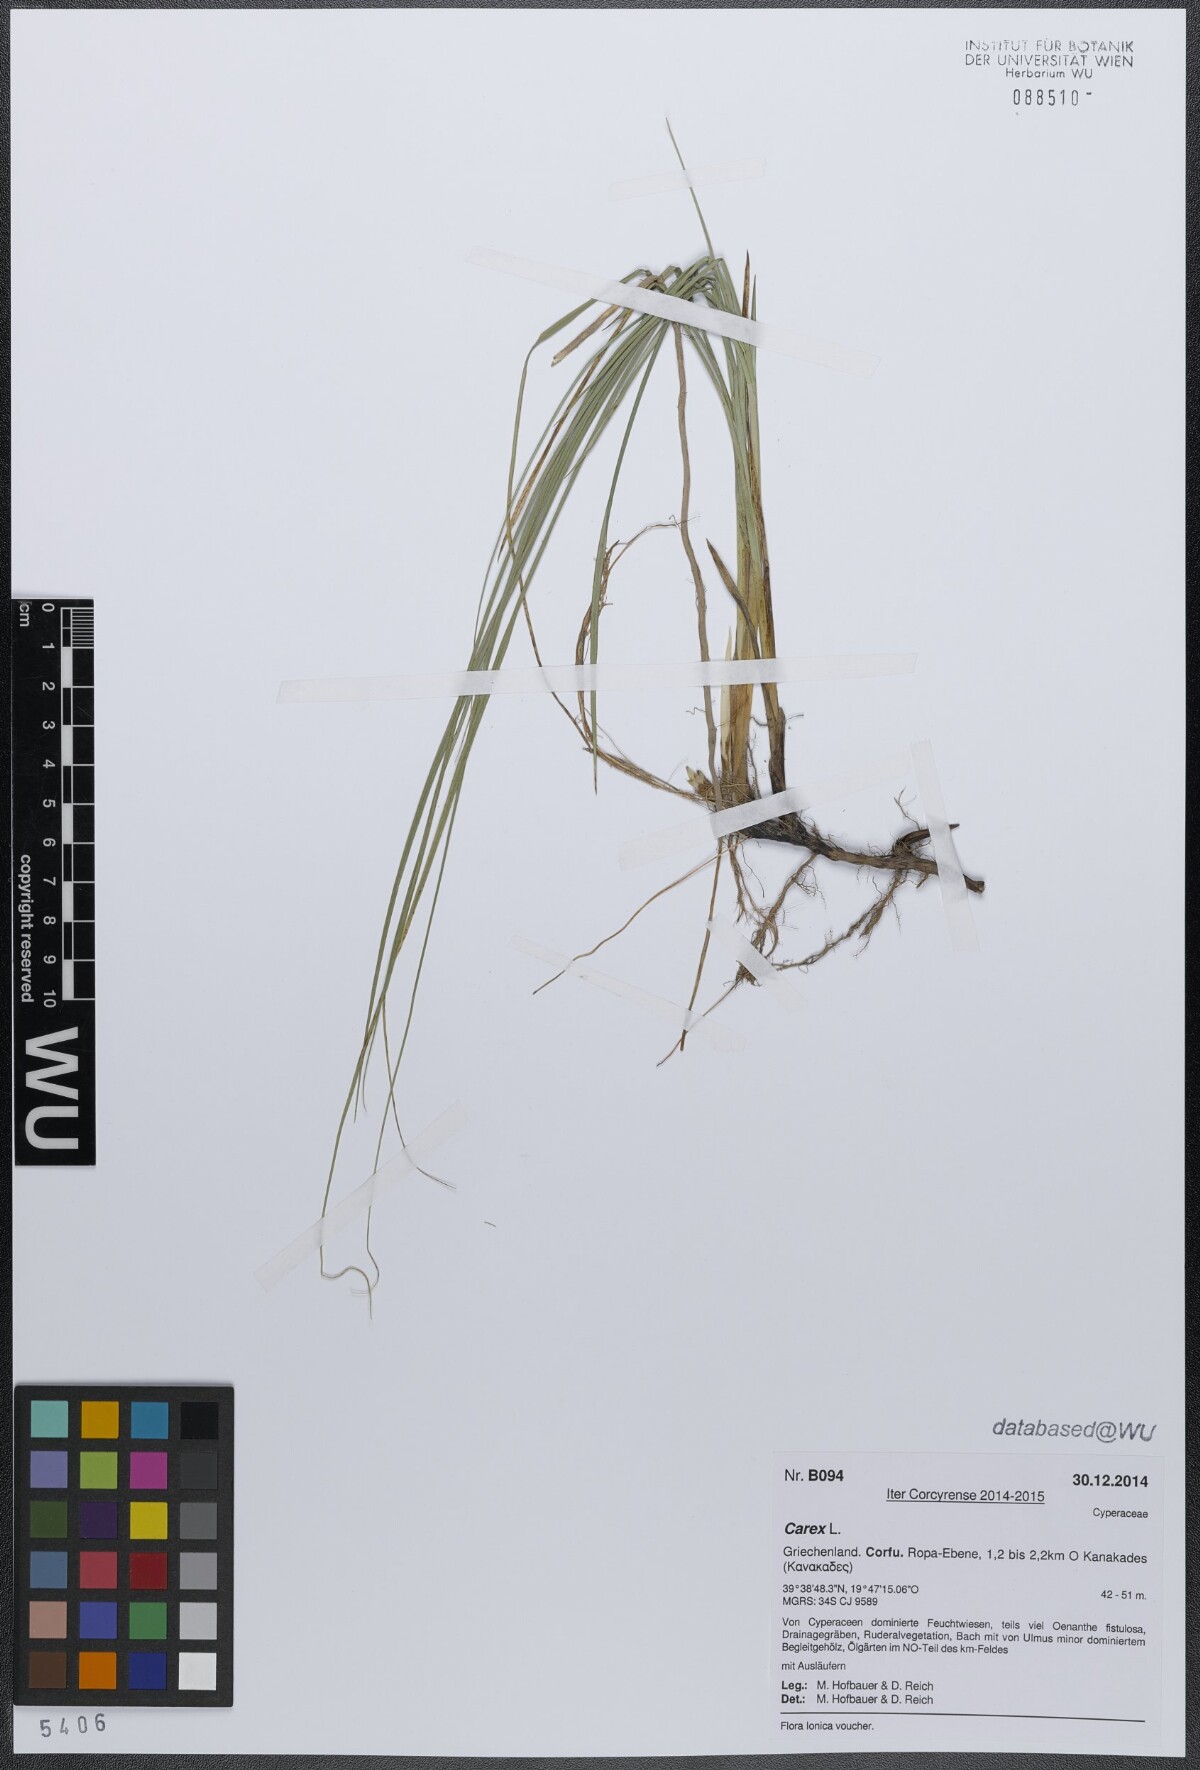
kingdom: Plantae
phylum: Tracheophyta
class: Liliopsida
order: Poales
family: Cyperaceae
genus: Carex
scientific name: Carex
